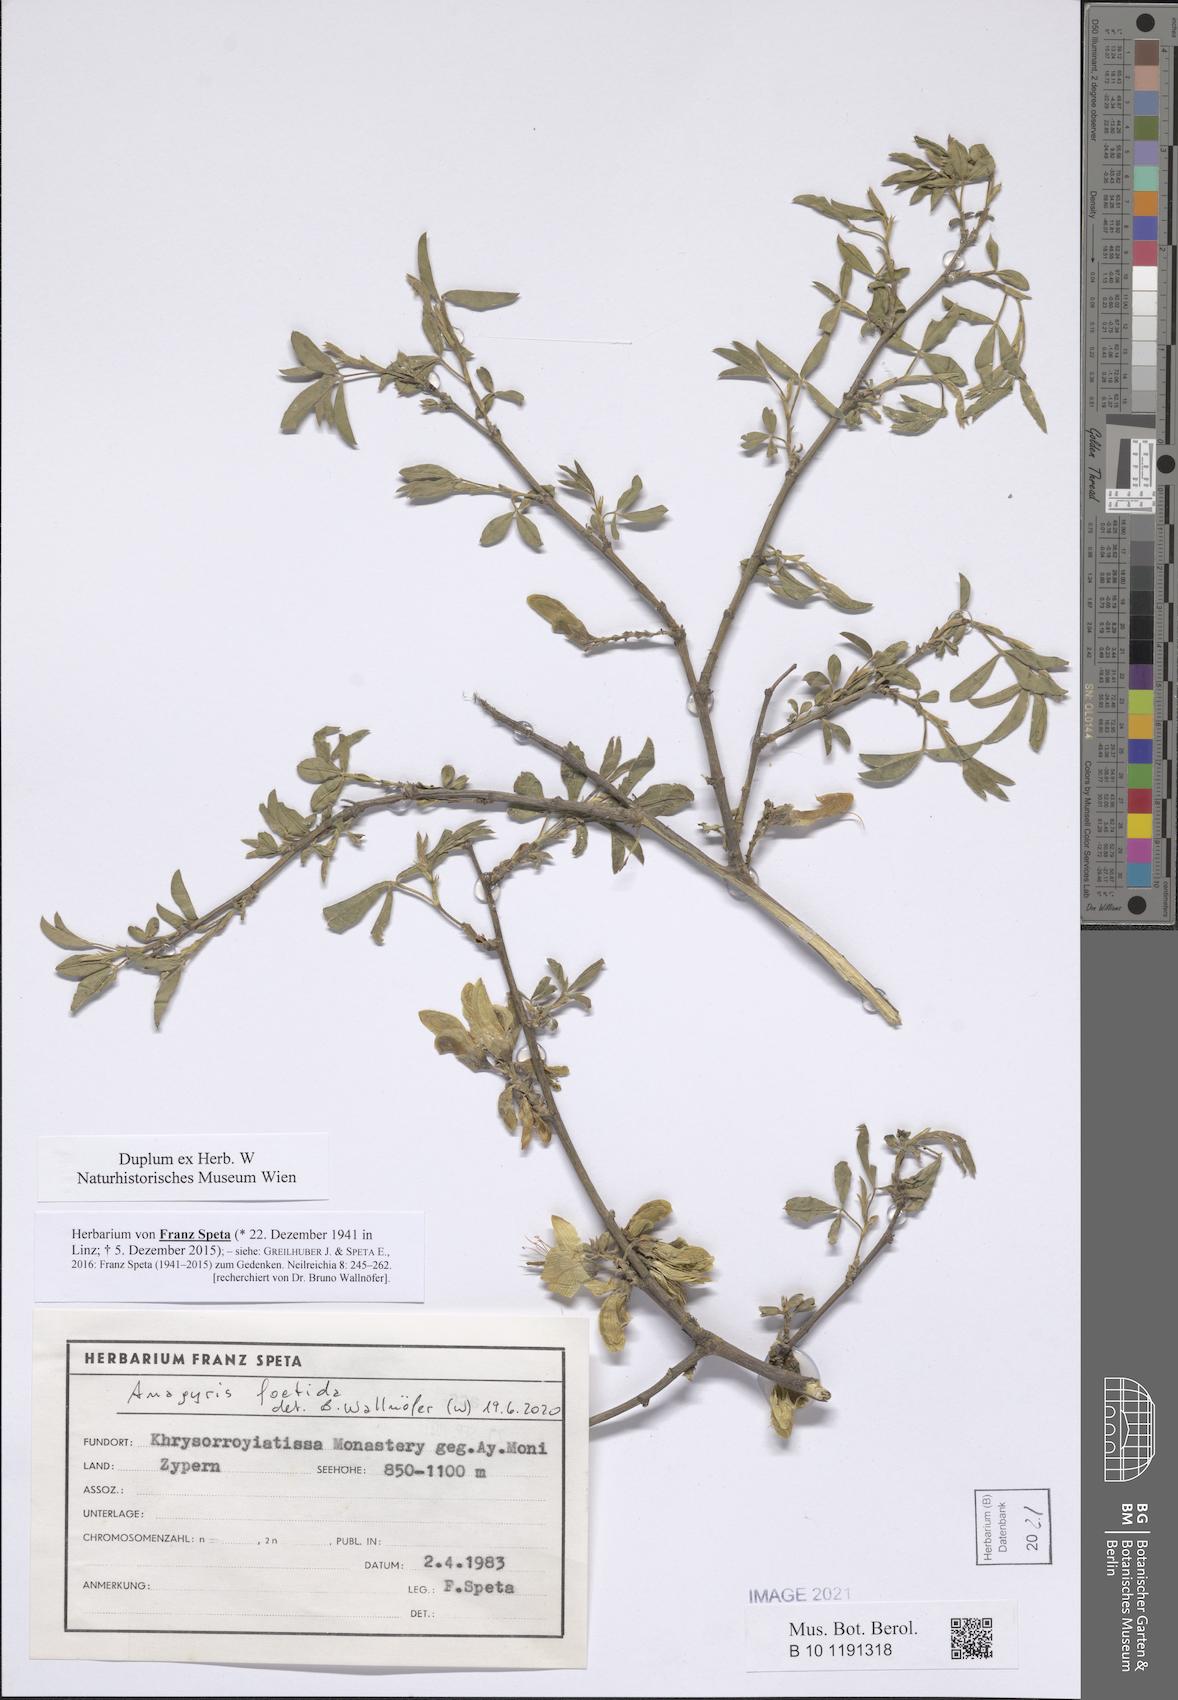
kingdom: Plantae
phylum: Tracheophyta
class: Magnoliopsida
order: Fabales
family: Fabaceae
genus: Anagyris
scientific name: Anagyris foetida
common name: Stinking bean trefoil
